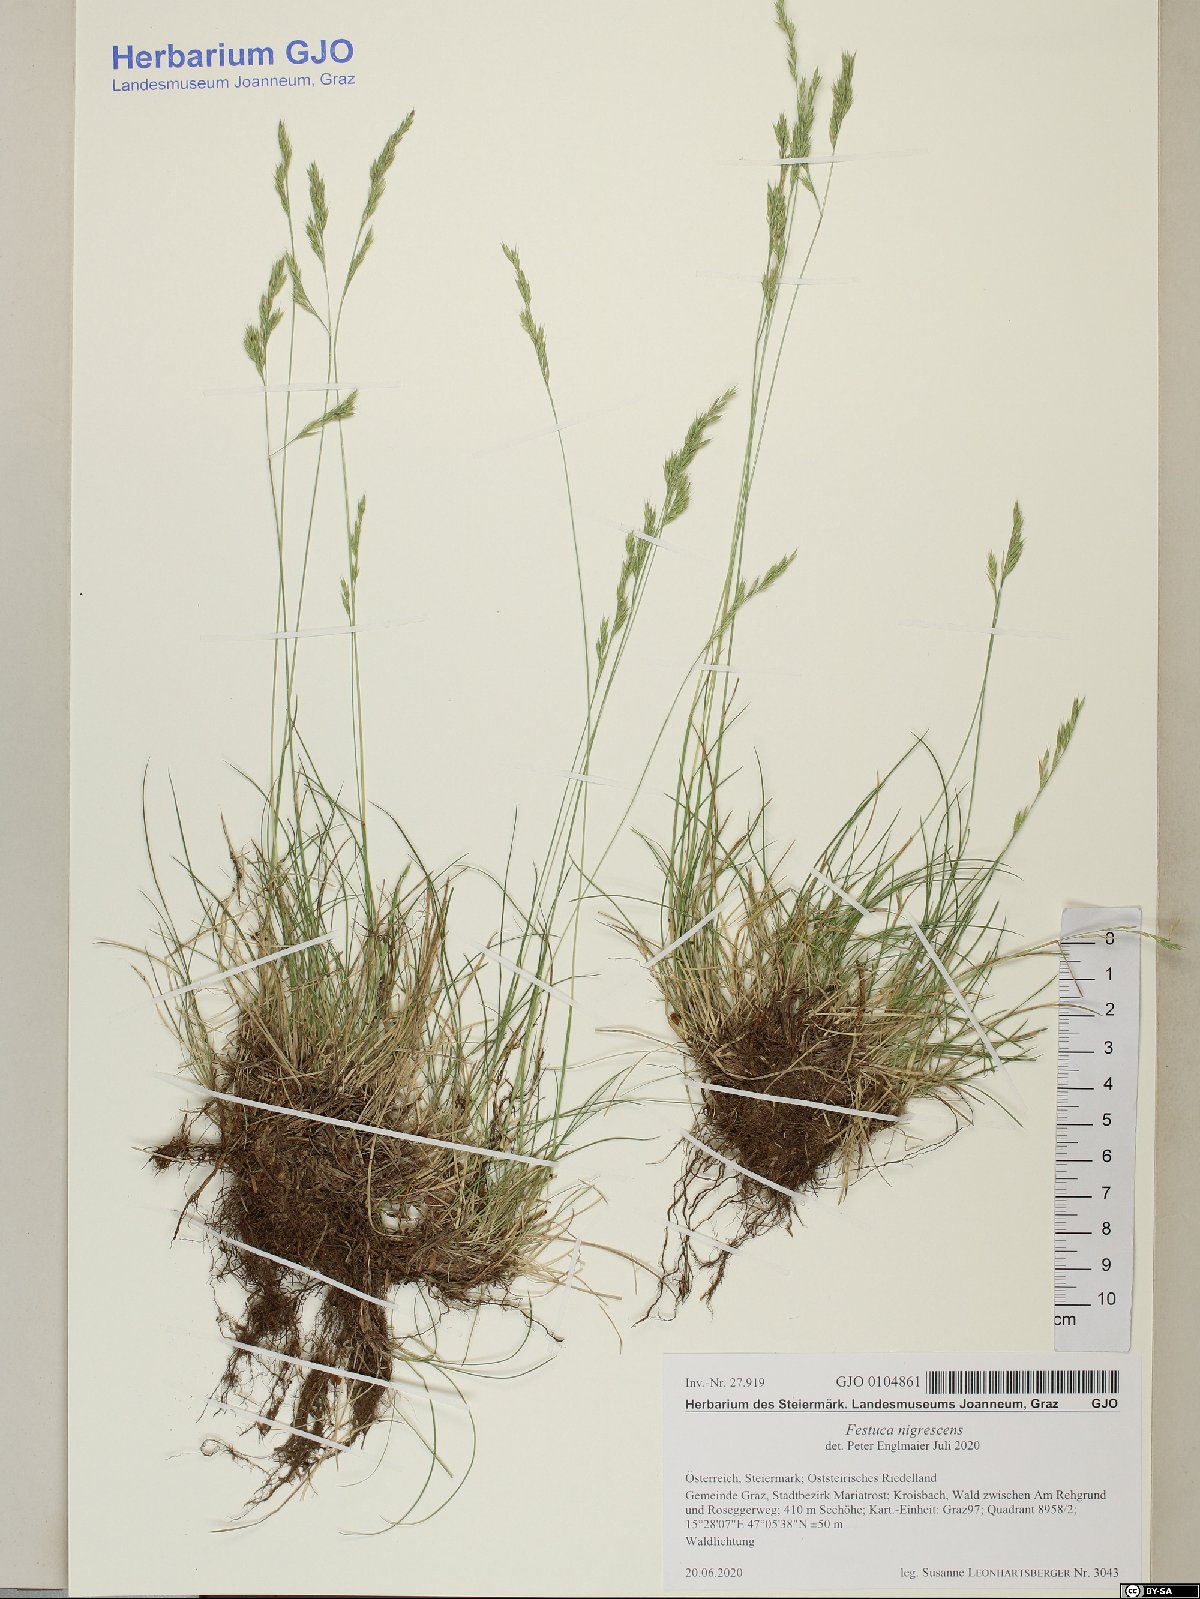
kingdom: Plantae
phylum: Tracheophyta
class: Liliopsida
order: Poales
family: Poaceae
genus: Festuca
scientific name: Festuca nigrescens
